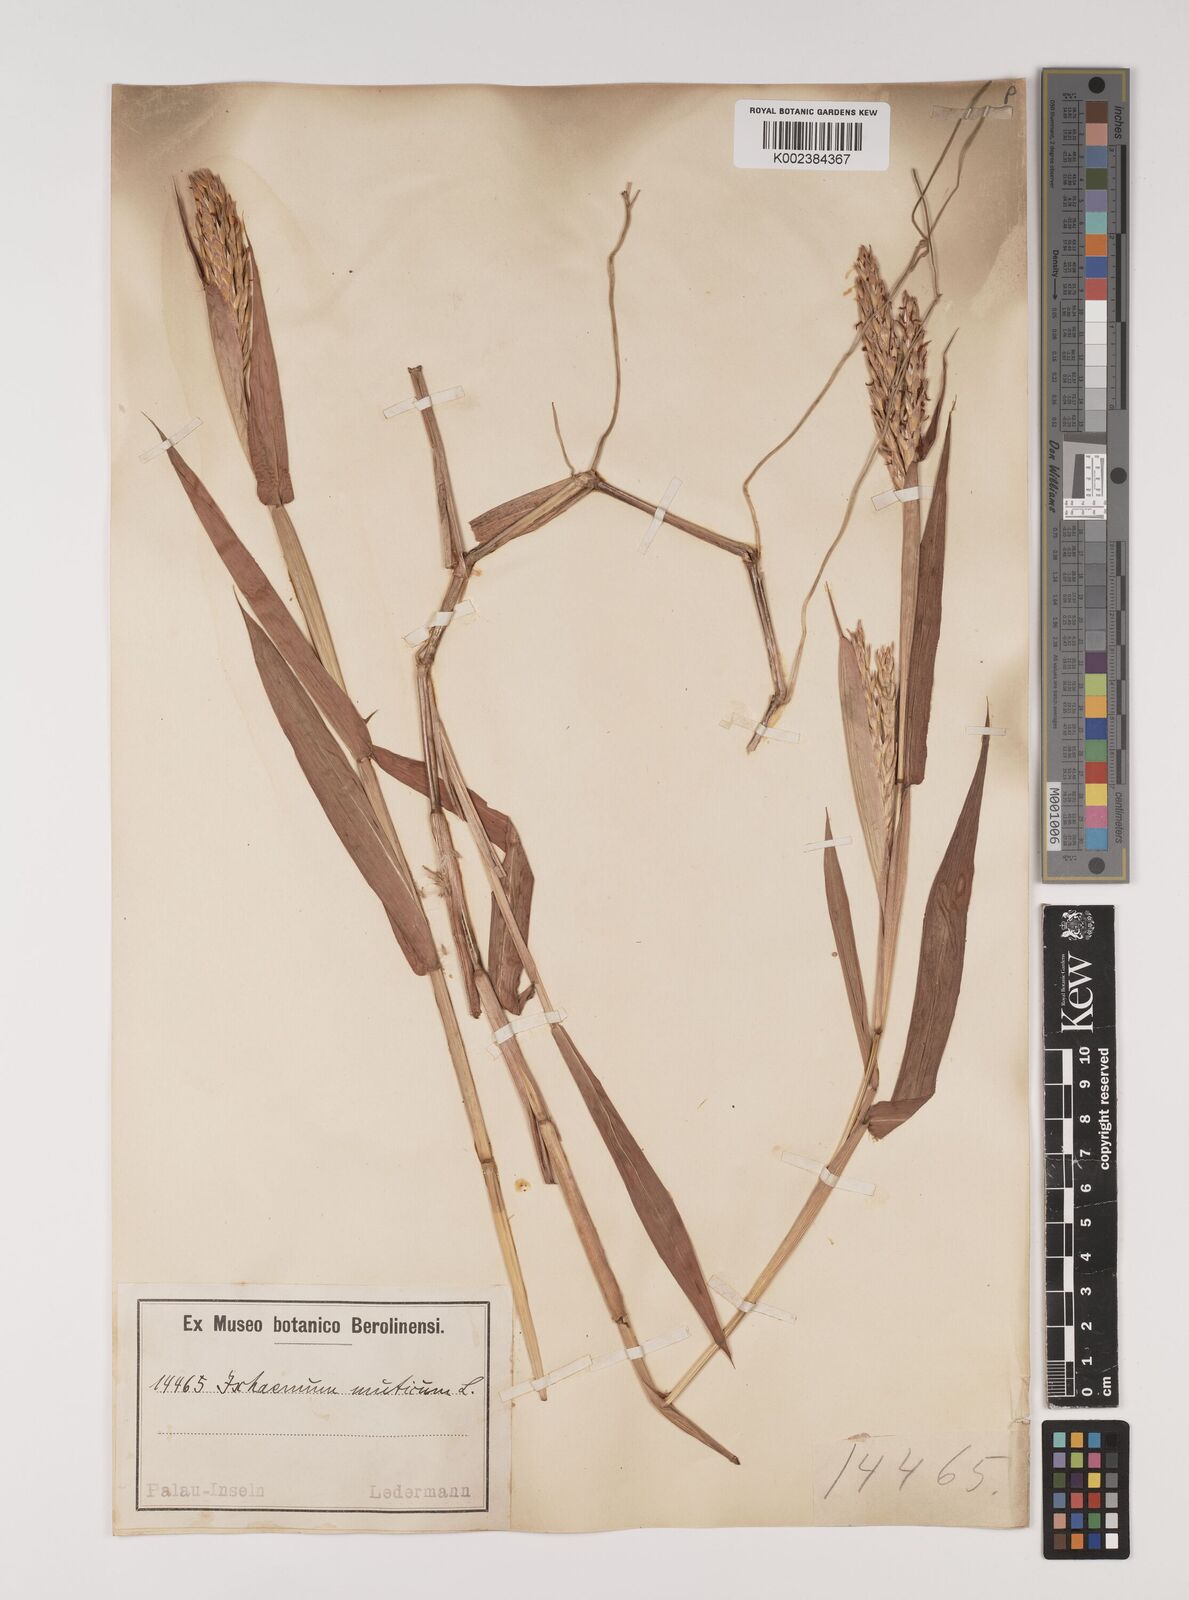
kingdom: Plantae
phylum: Tracheophyta
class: Liliopsida
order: Poales
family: Poaceae
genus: Ischaemum
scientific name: Ischaemum muticum
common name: Drought grass
